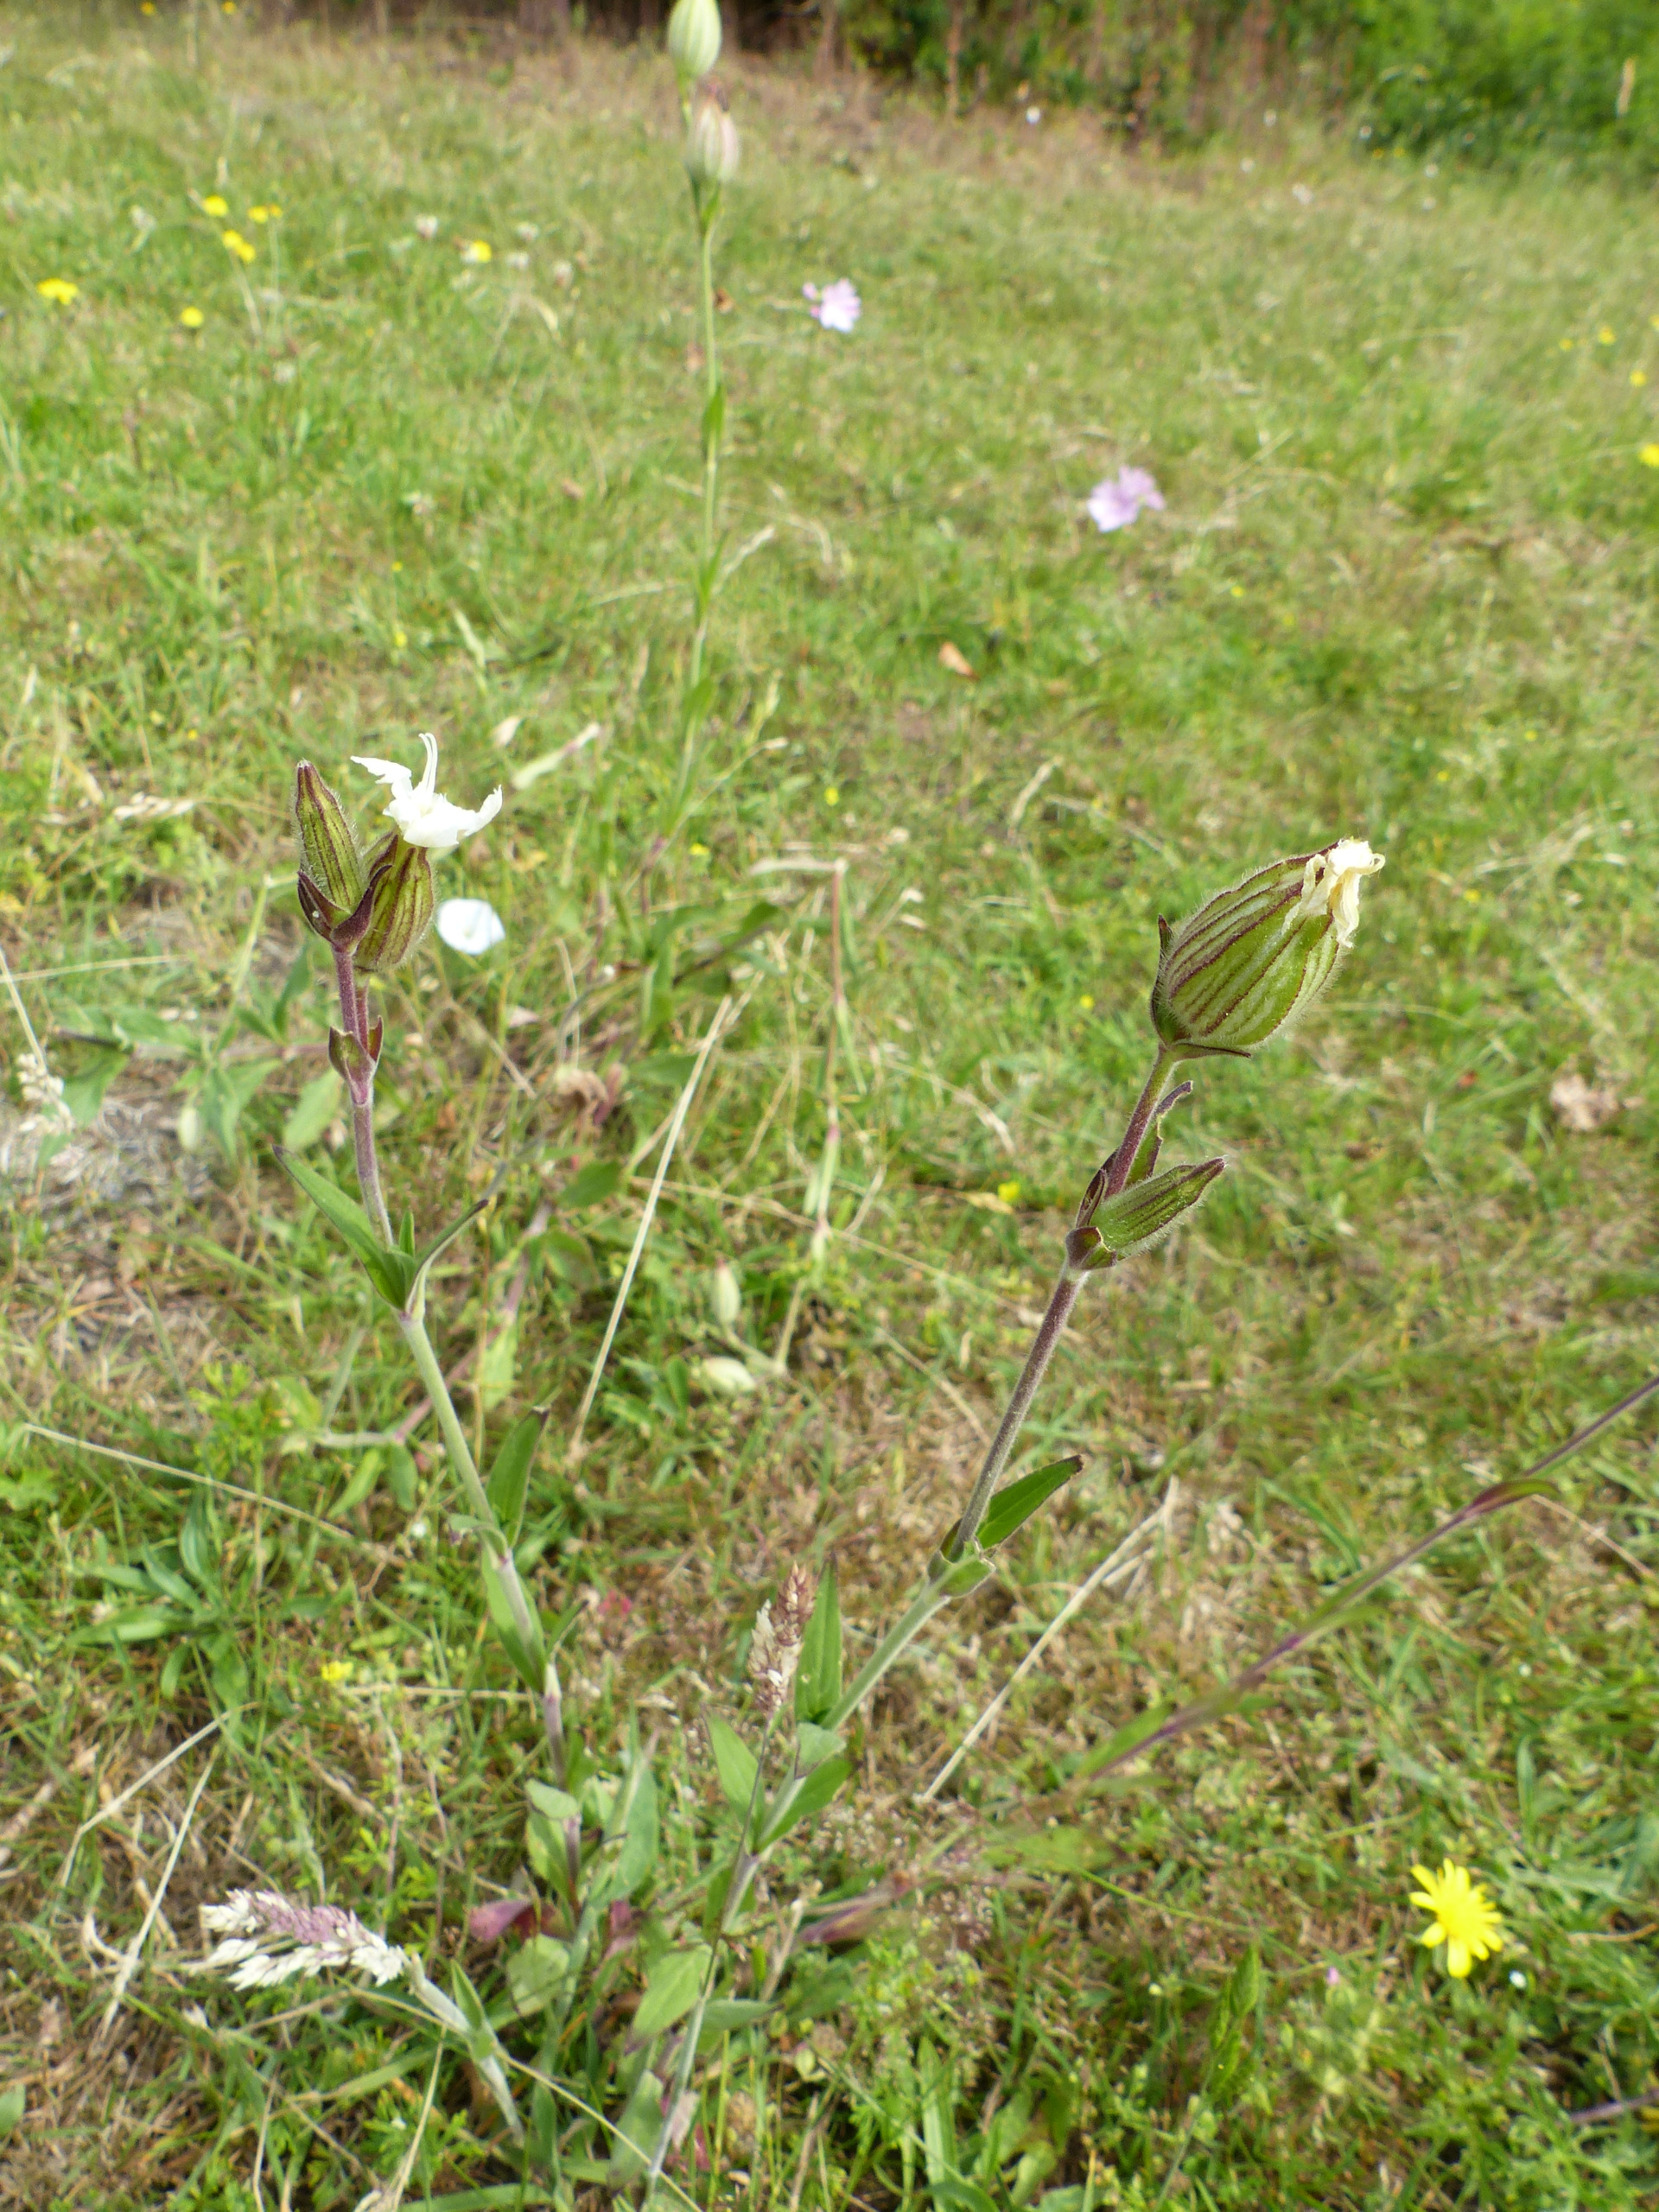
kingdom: Plantae
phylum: Tracheophyta
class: Magnoliopsida
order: Caryophyllales
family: Caryophyllaceae
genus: Silene
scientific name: Silene latifolia
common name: Aftenpragtstjerne
